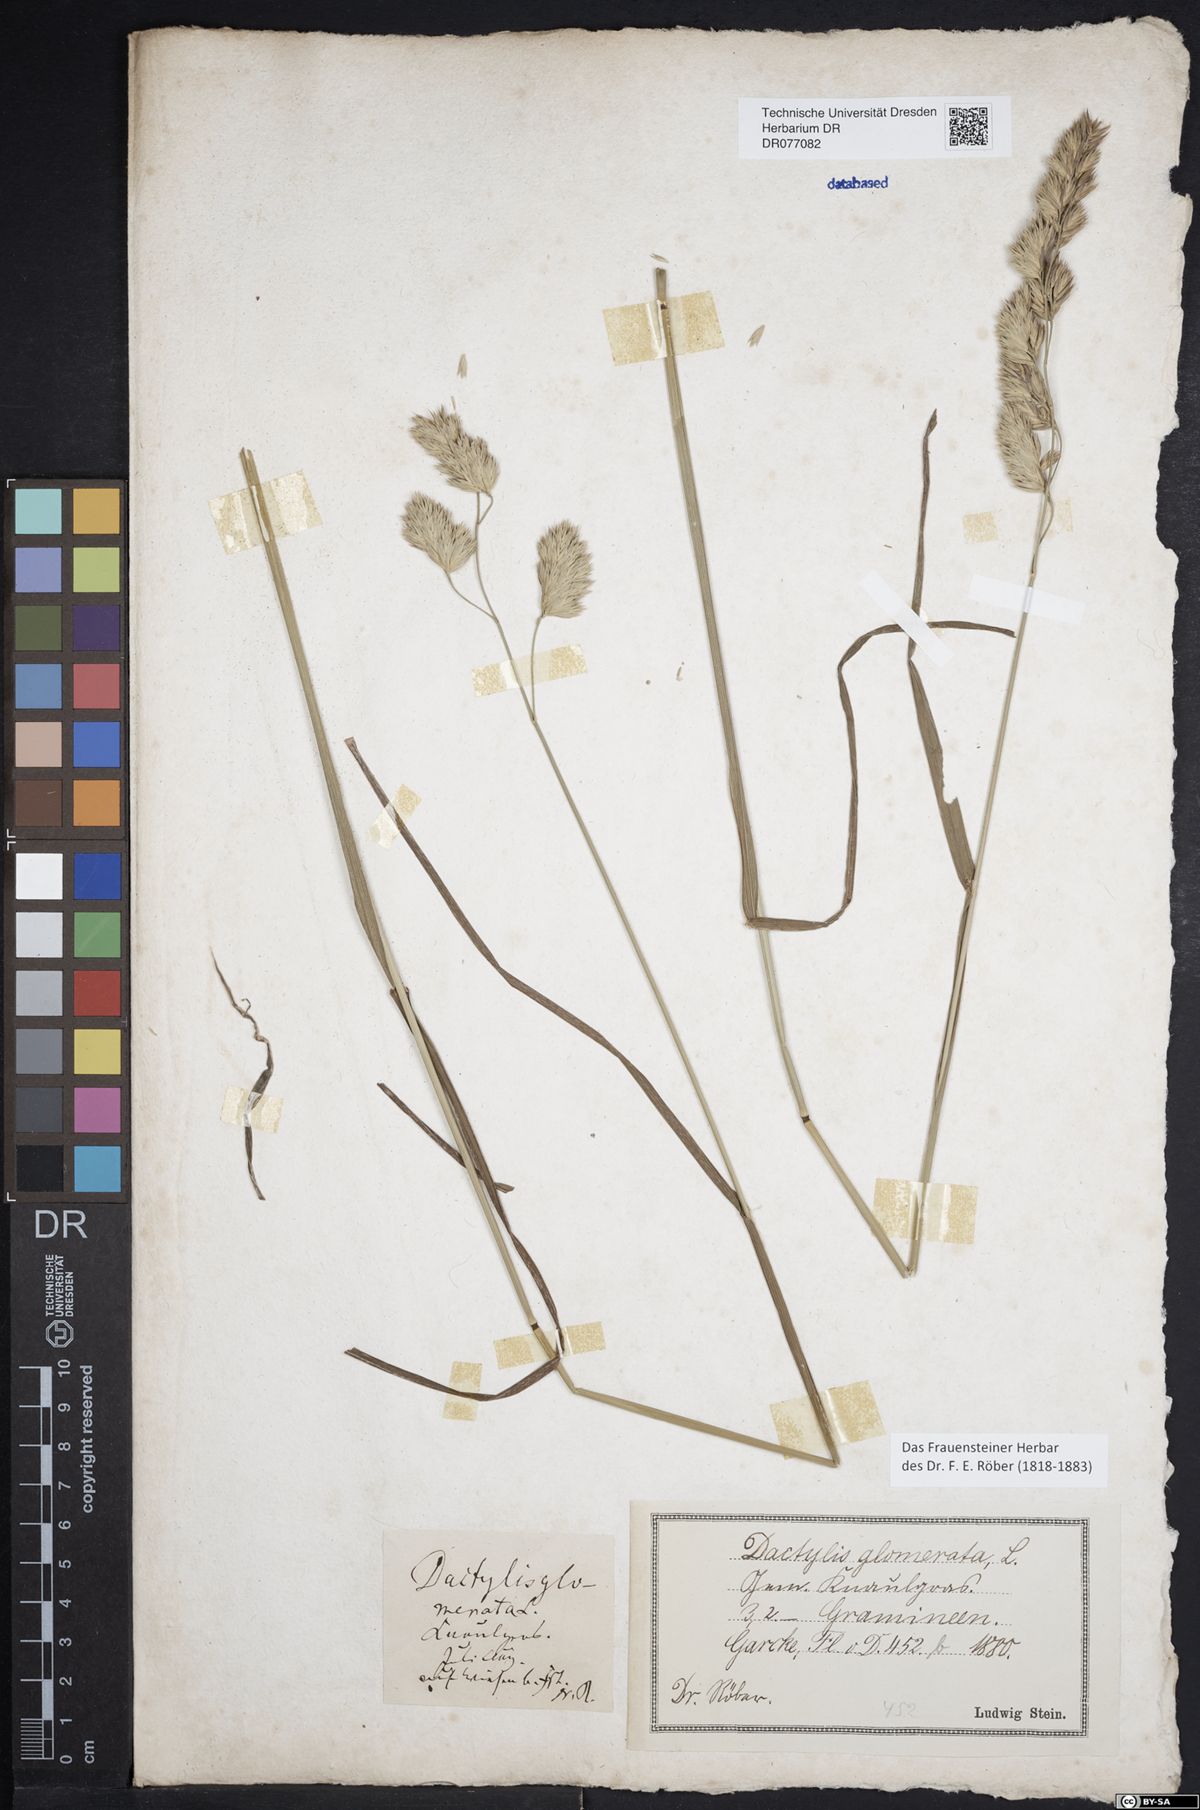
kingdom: Plantae
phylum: Tracheophyta
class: Liliopsida
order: Poales
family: Poaceae
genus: Dactylis
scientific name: Dactylis glomerata
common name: Orchardgrass
